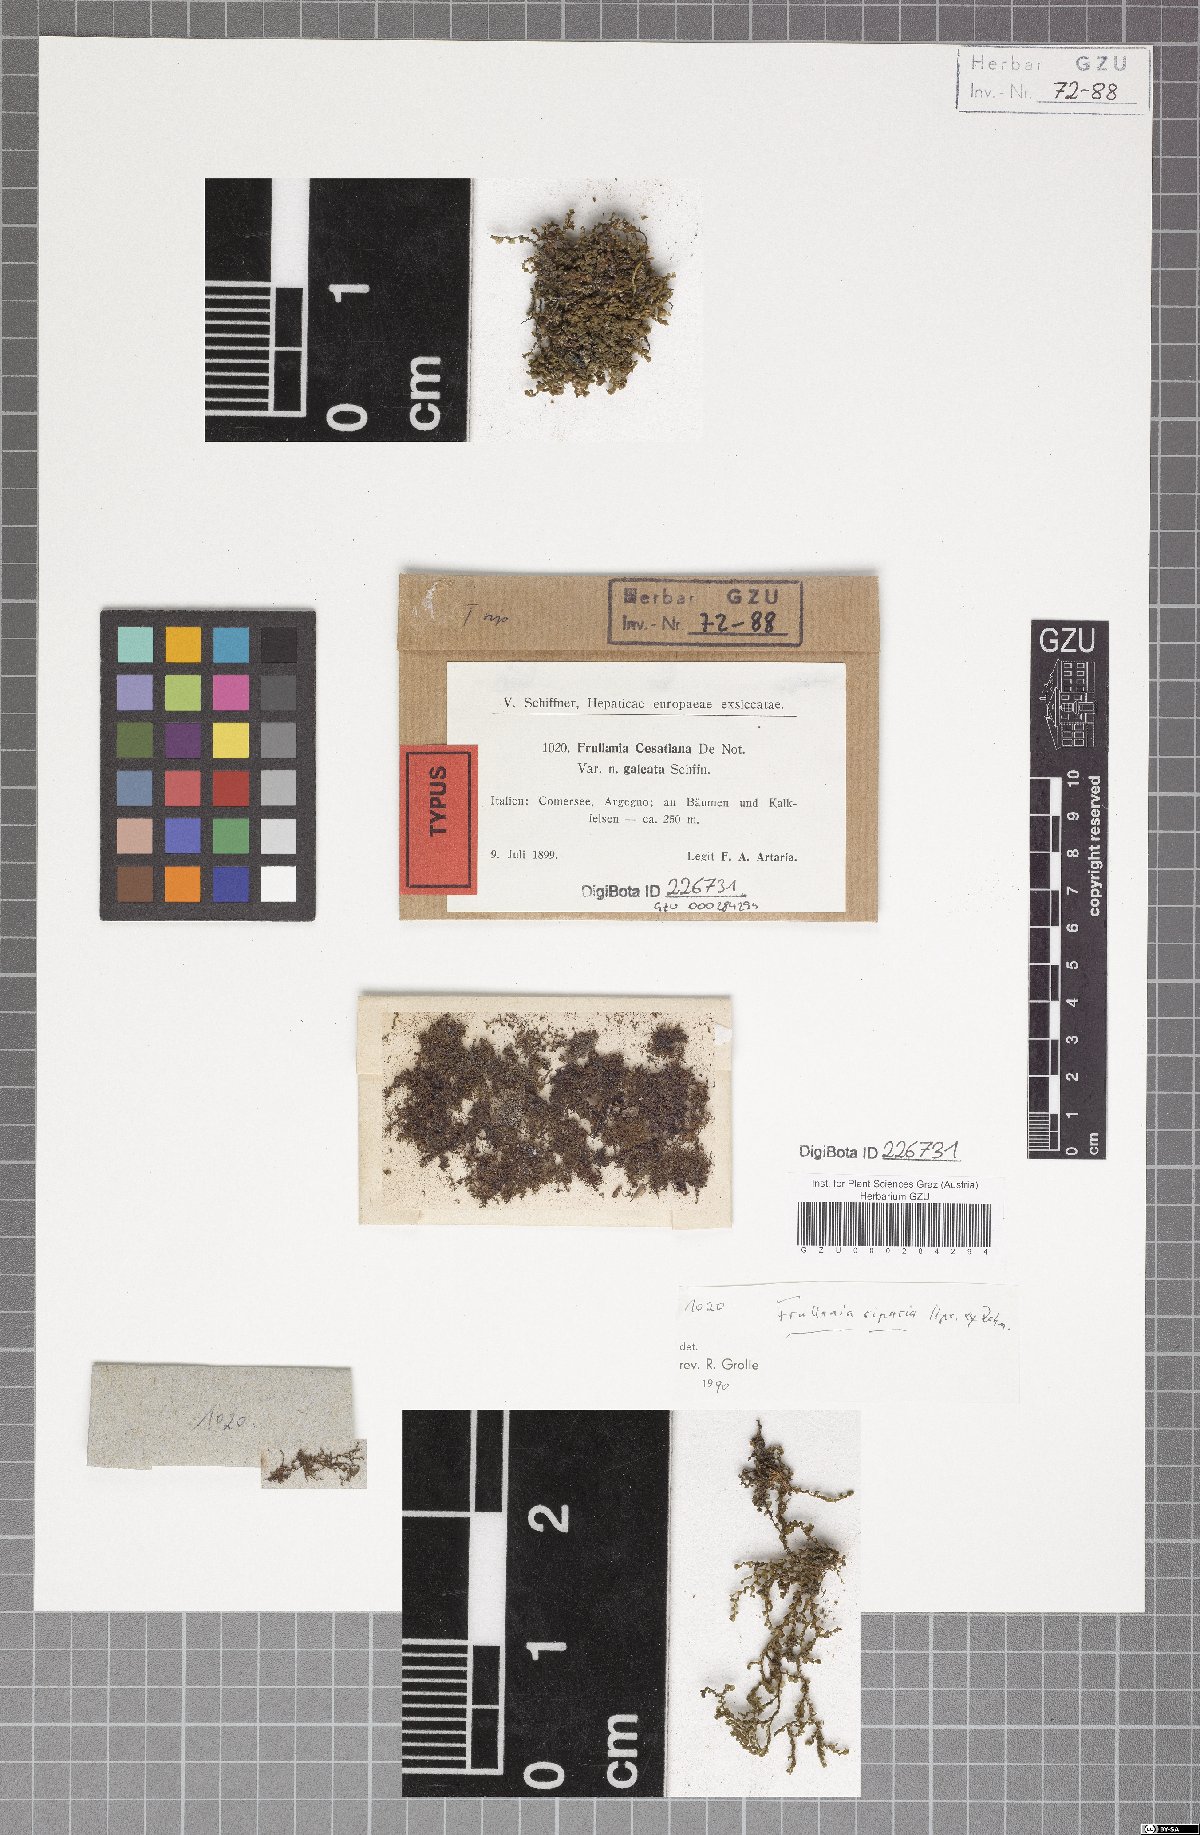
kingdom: Plantae
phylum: Marchantiophyta
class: Jungermanniopsida
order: Porellales
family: Frullaniaceae
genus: Frullania
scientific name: Frullania riparia
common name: River scalewort
